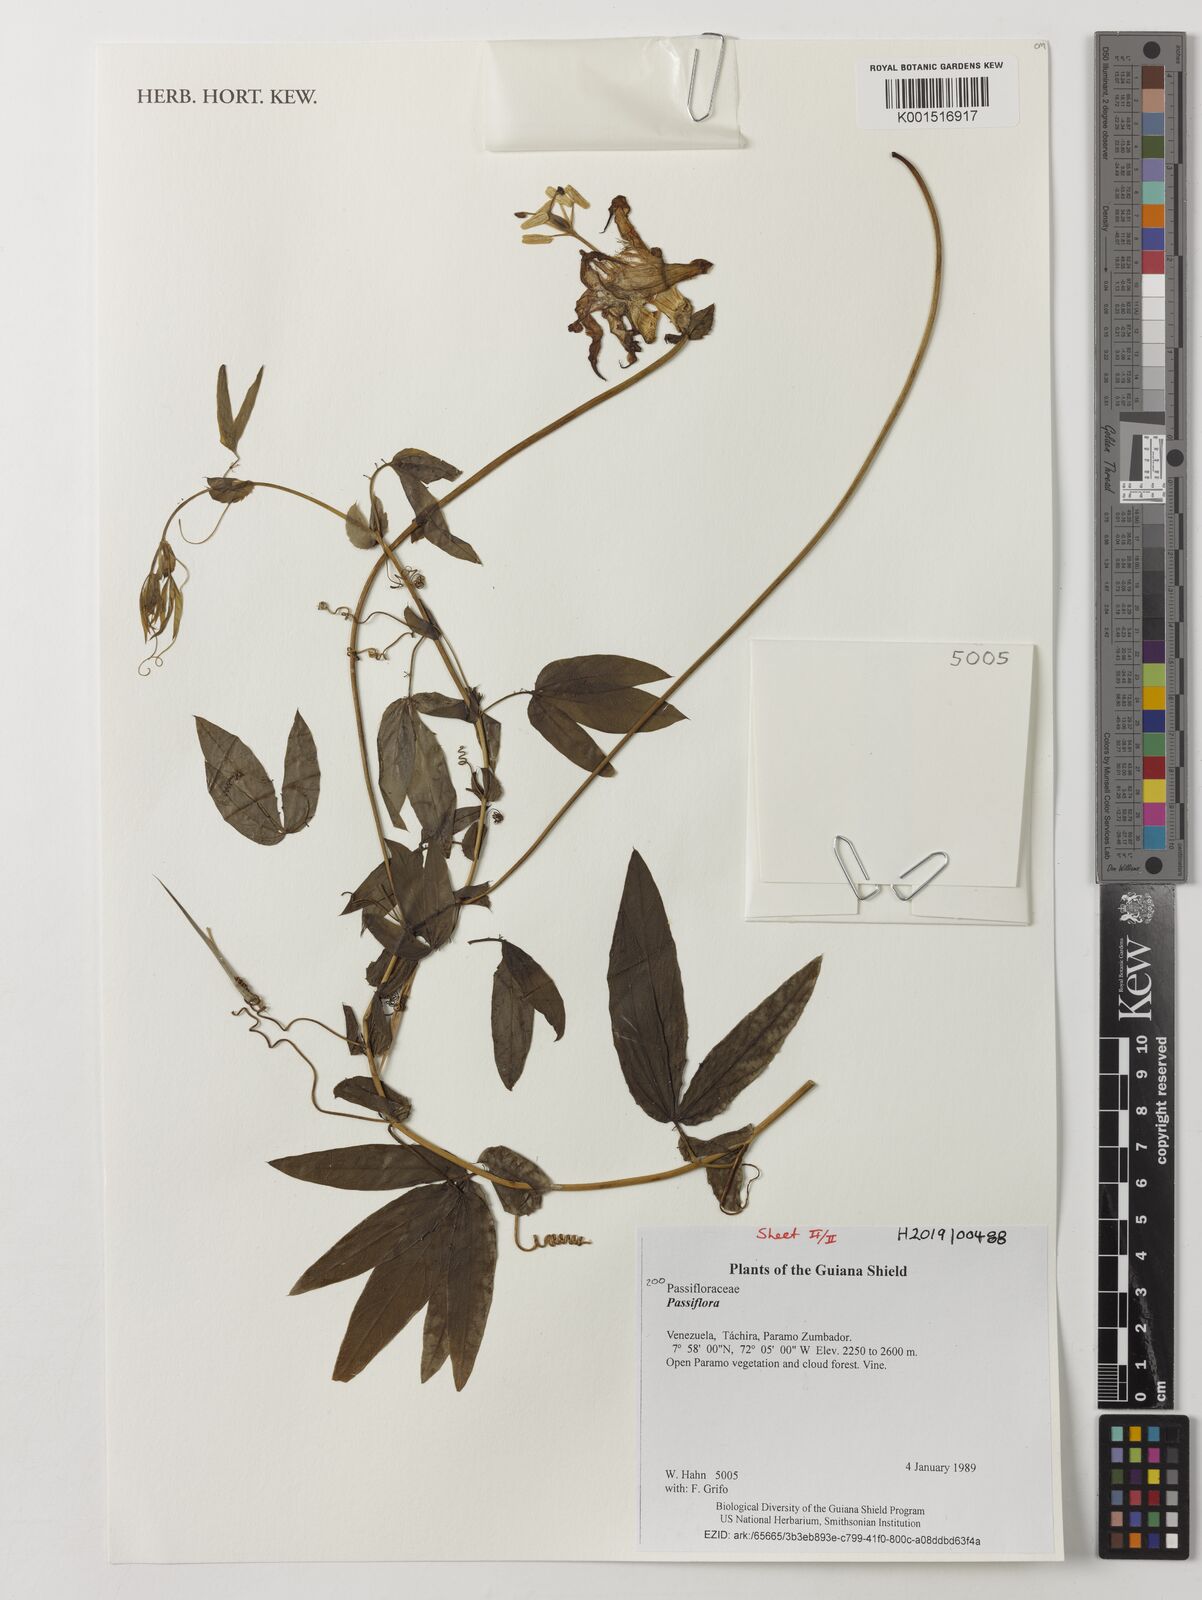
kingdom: Plantae
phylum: Tracheophyta
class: Magnoliopsida
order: Malpighiales
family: Passifloraceae
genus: Passiflora
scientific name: Passiflora
